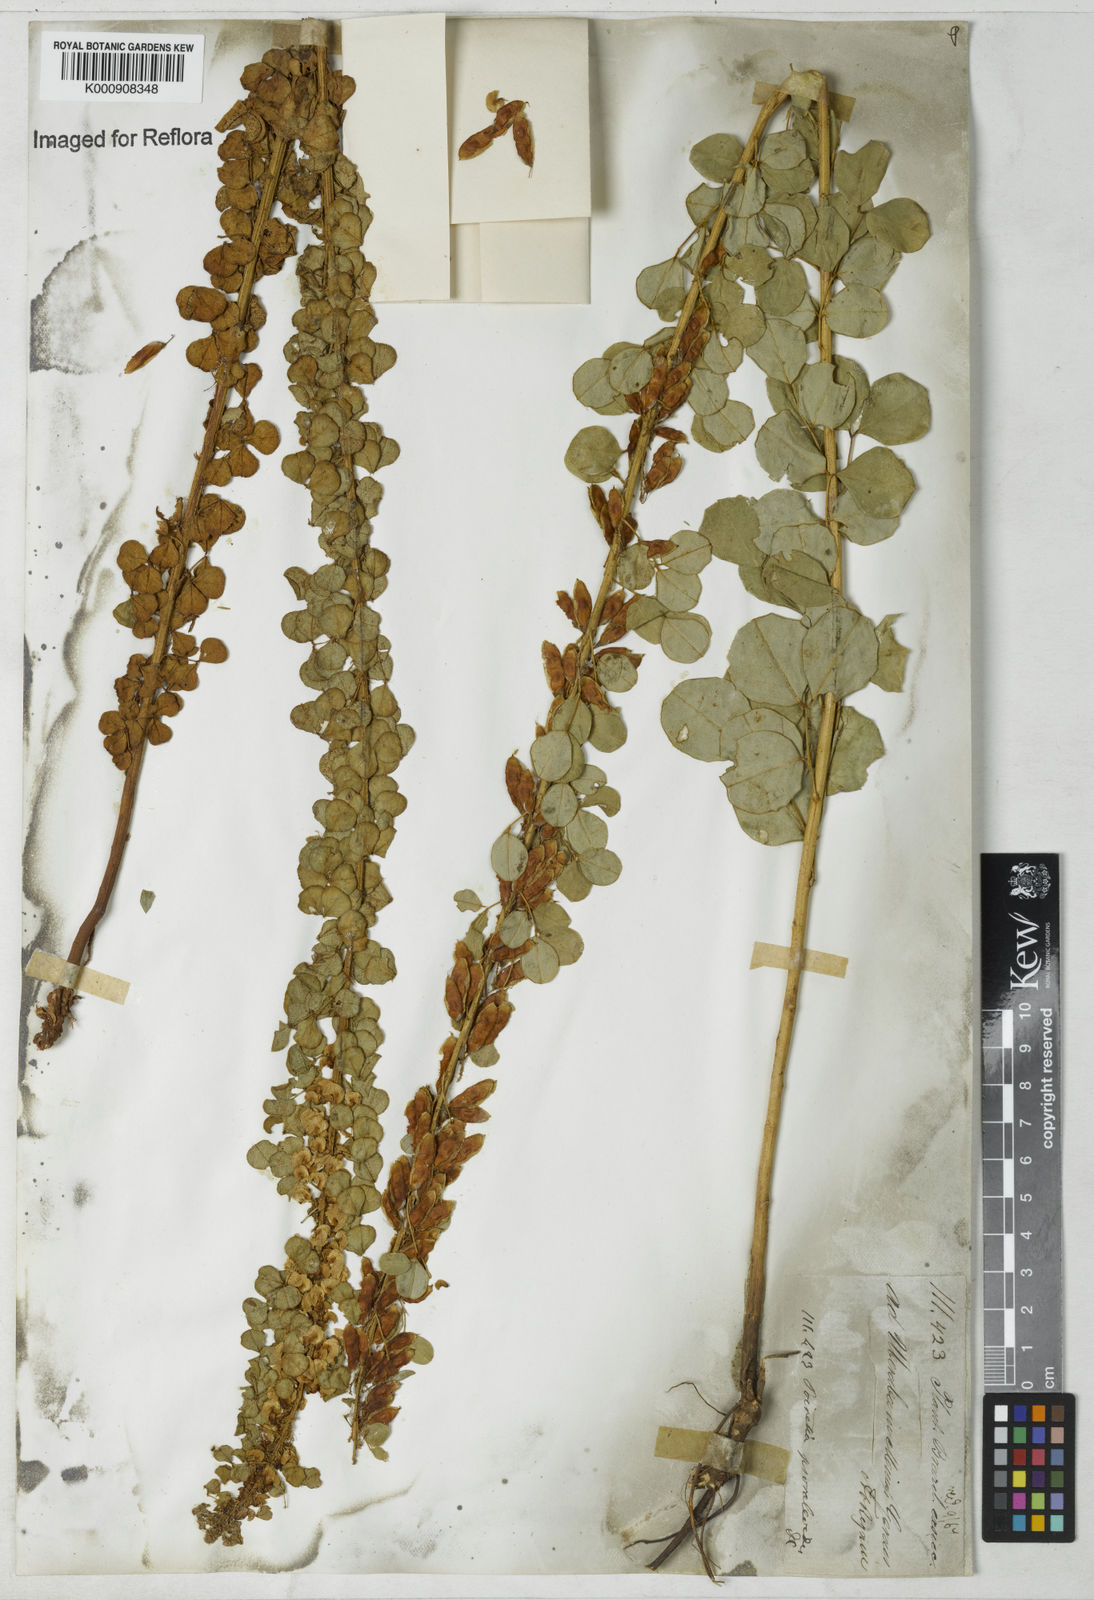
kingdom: Plantae
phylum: Tracheophyta
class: Magnoliopsida
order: Fabales
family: Fabaceae
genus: Poiretia
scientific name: Poiretia
